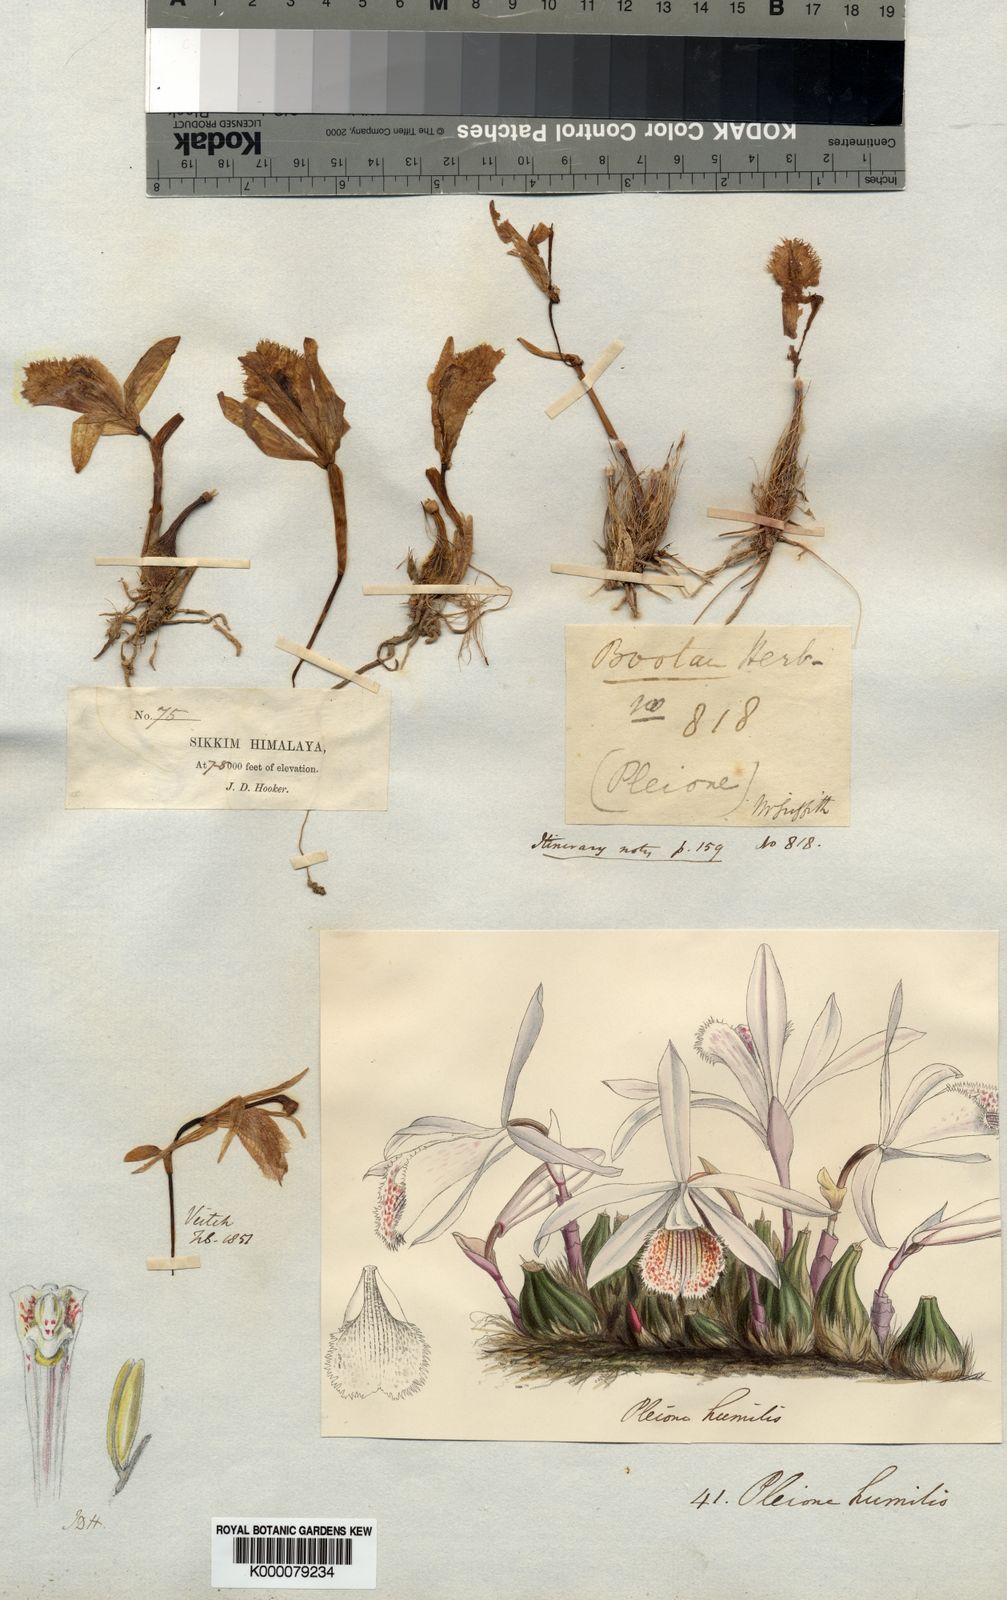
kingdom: Plantae
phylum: Tracheophyta
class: Liliopsida
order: Asparagales
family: Orchidaceae
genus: Pleione
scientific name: Pleione humilis
